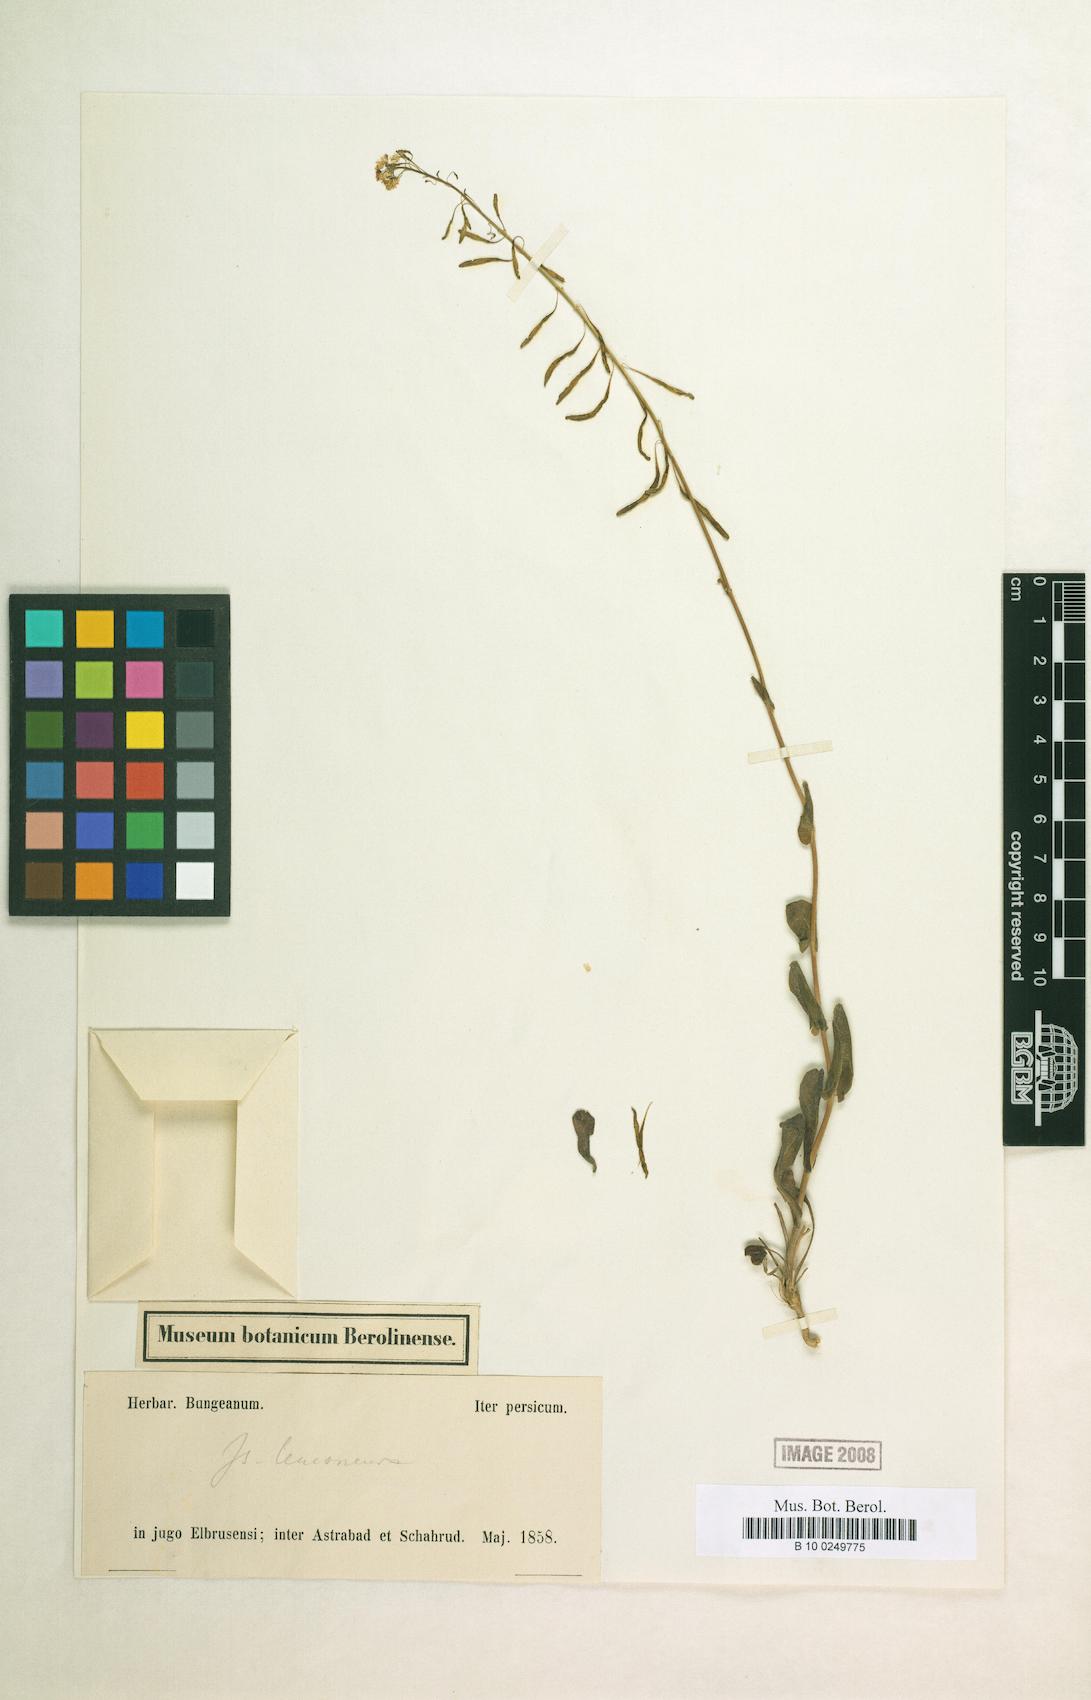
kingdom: Plantae
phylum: Tracheophyta
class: Magnoliopsida
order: Brassicales
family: Brassicaceae
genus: Isatis
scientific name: Isatis leuconeura
